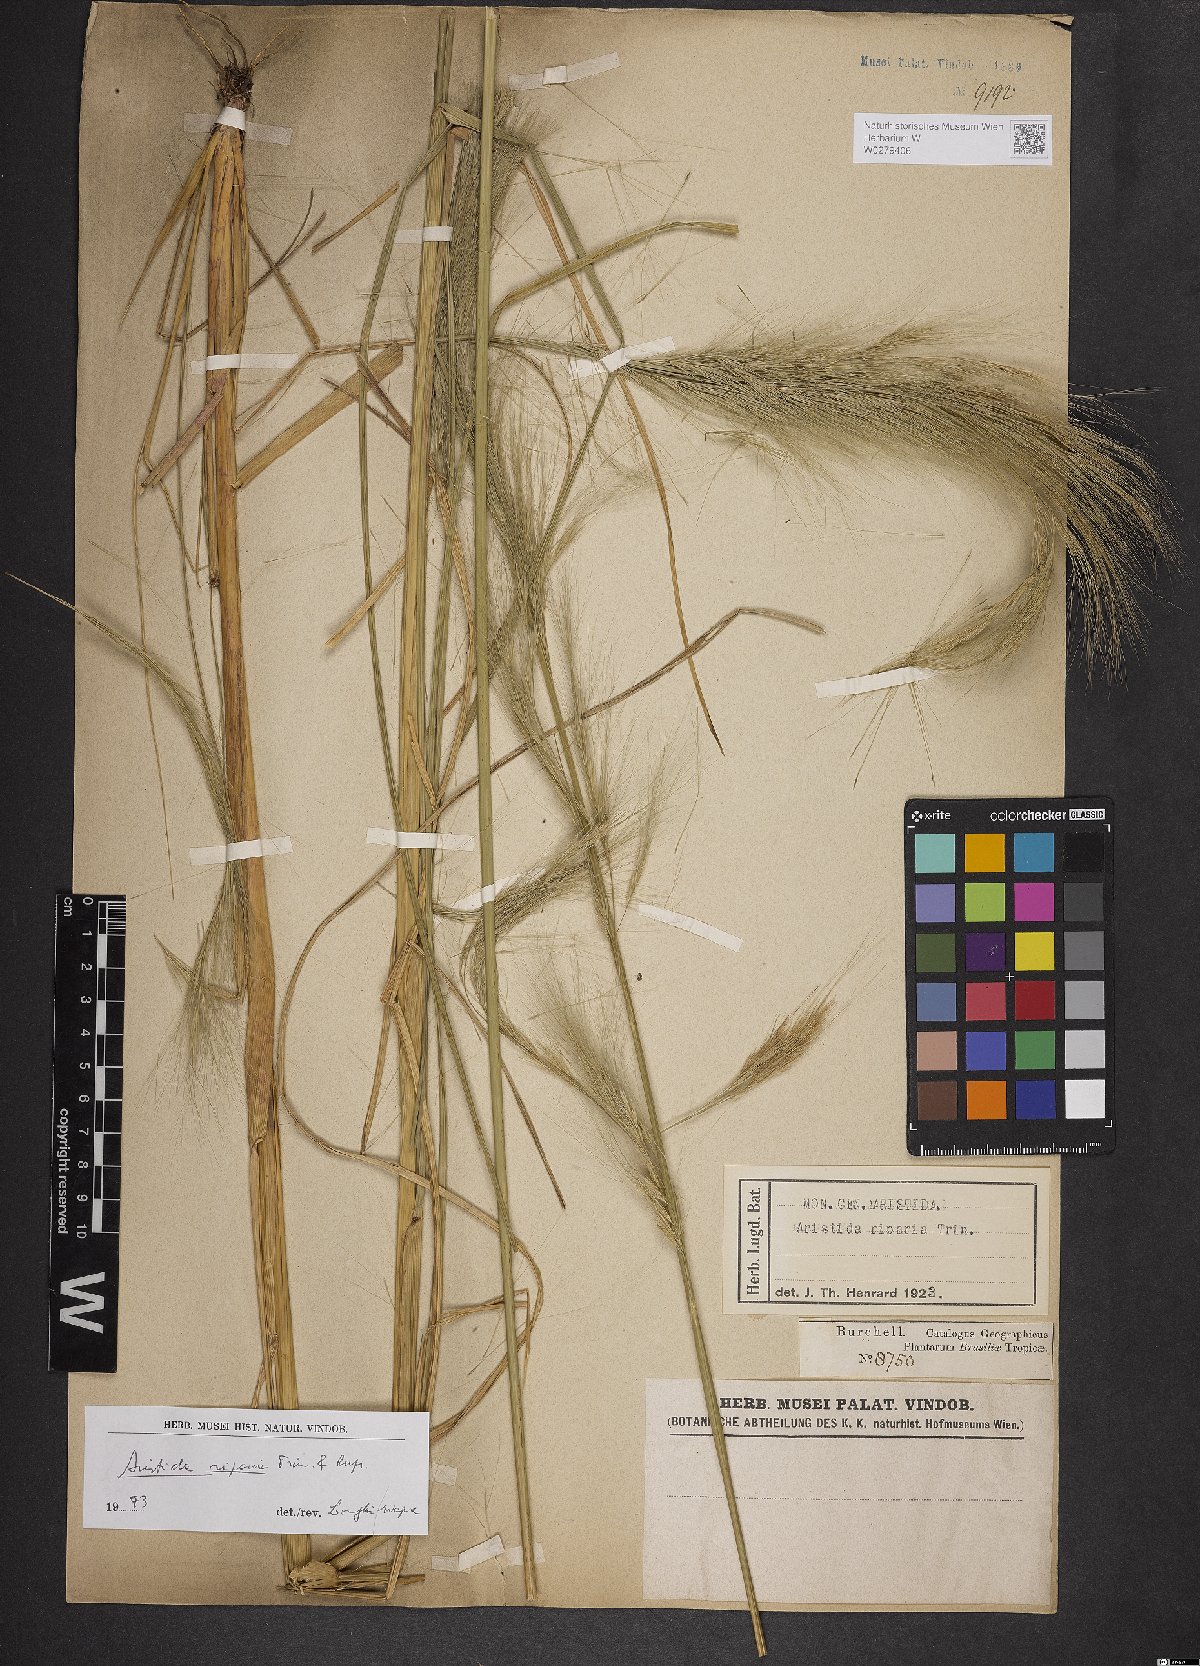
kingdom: Plantae
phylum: Tracheophyta
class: Liliopsida
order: Poales
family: Poaceae
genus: Aristida
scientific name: Aristida riparia
